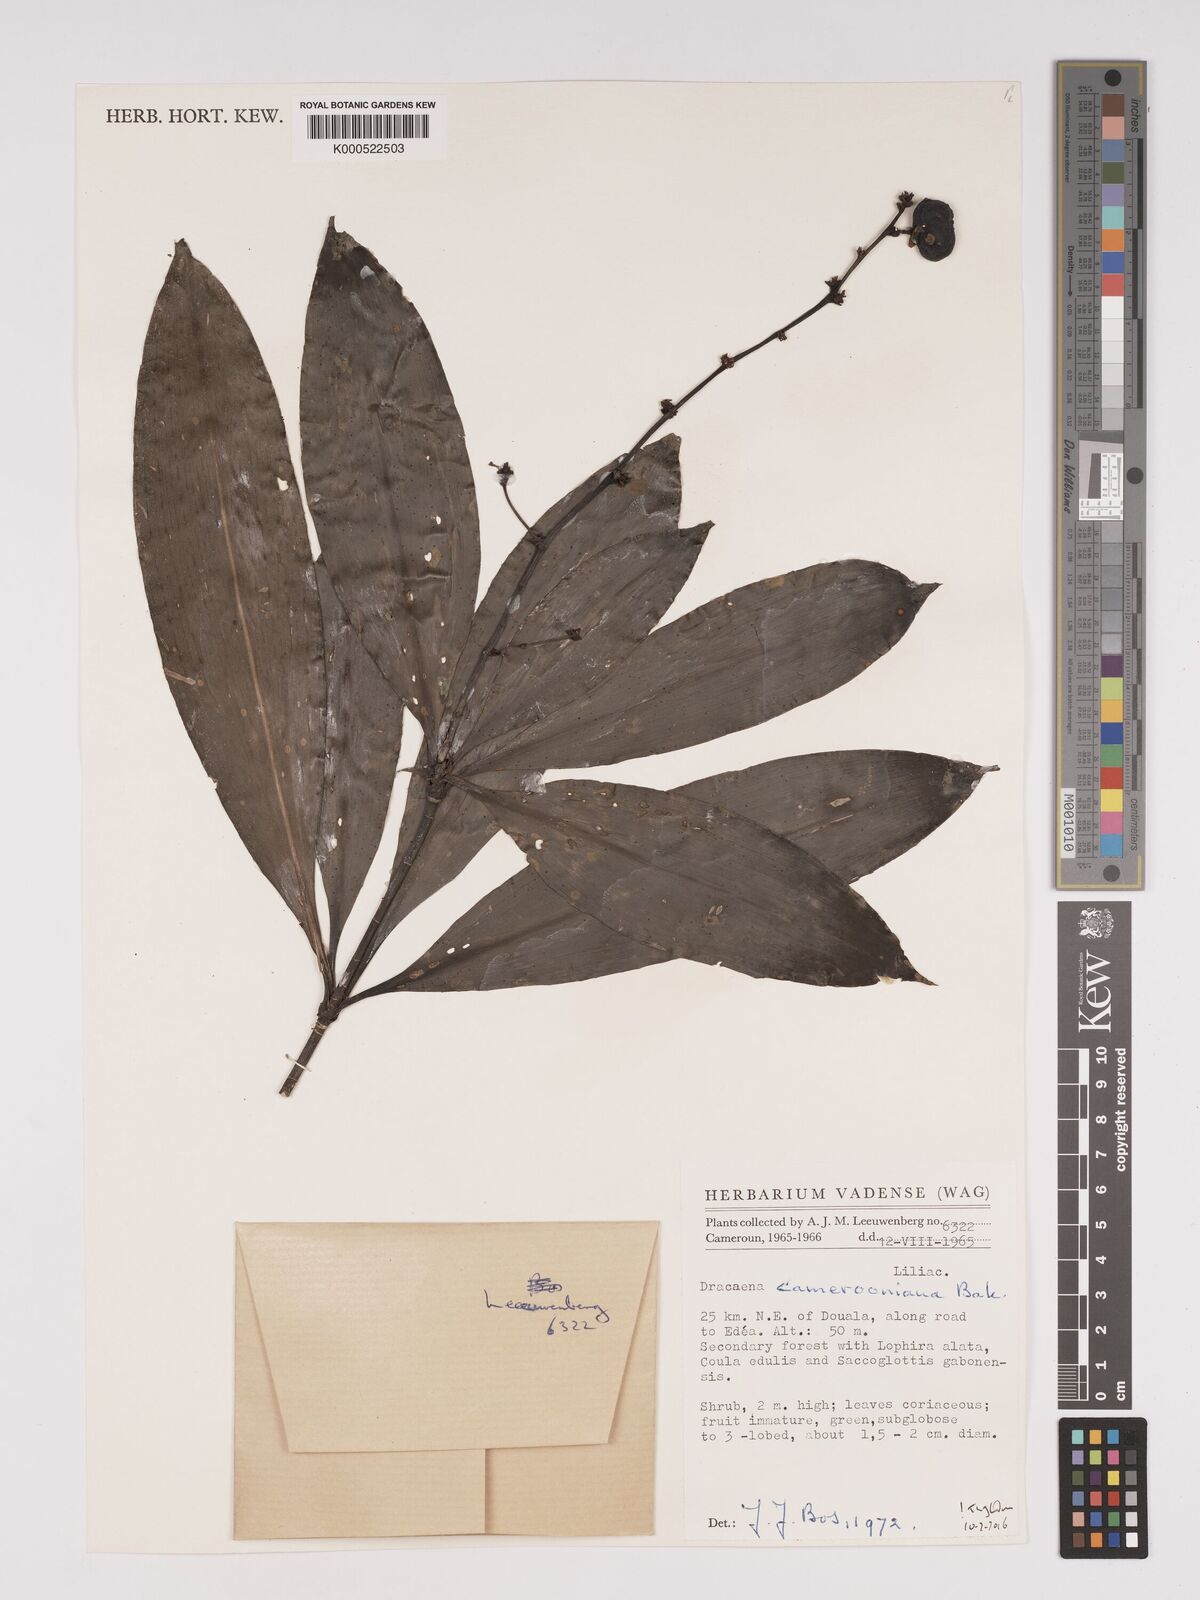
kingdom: Plantae
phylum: Tracheophyta
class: Liliopsida
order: Asparagales
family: Asparagaceae
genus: Dracaena
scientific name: Dracaena camerooniana
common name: Dragon tree
